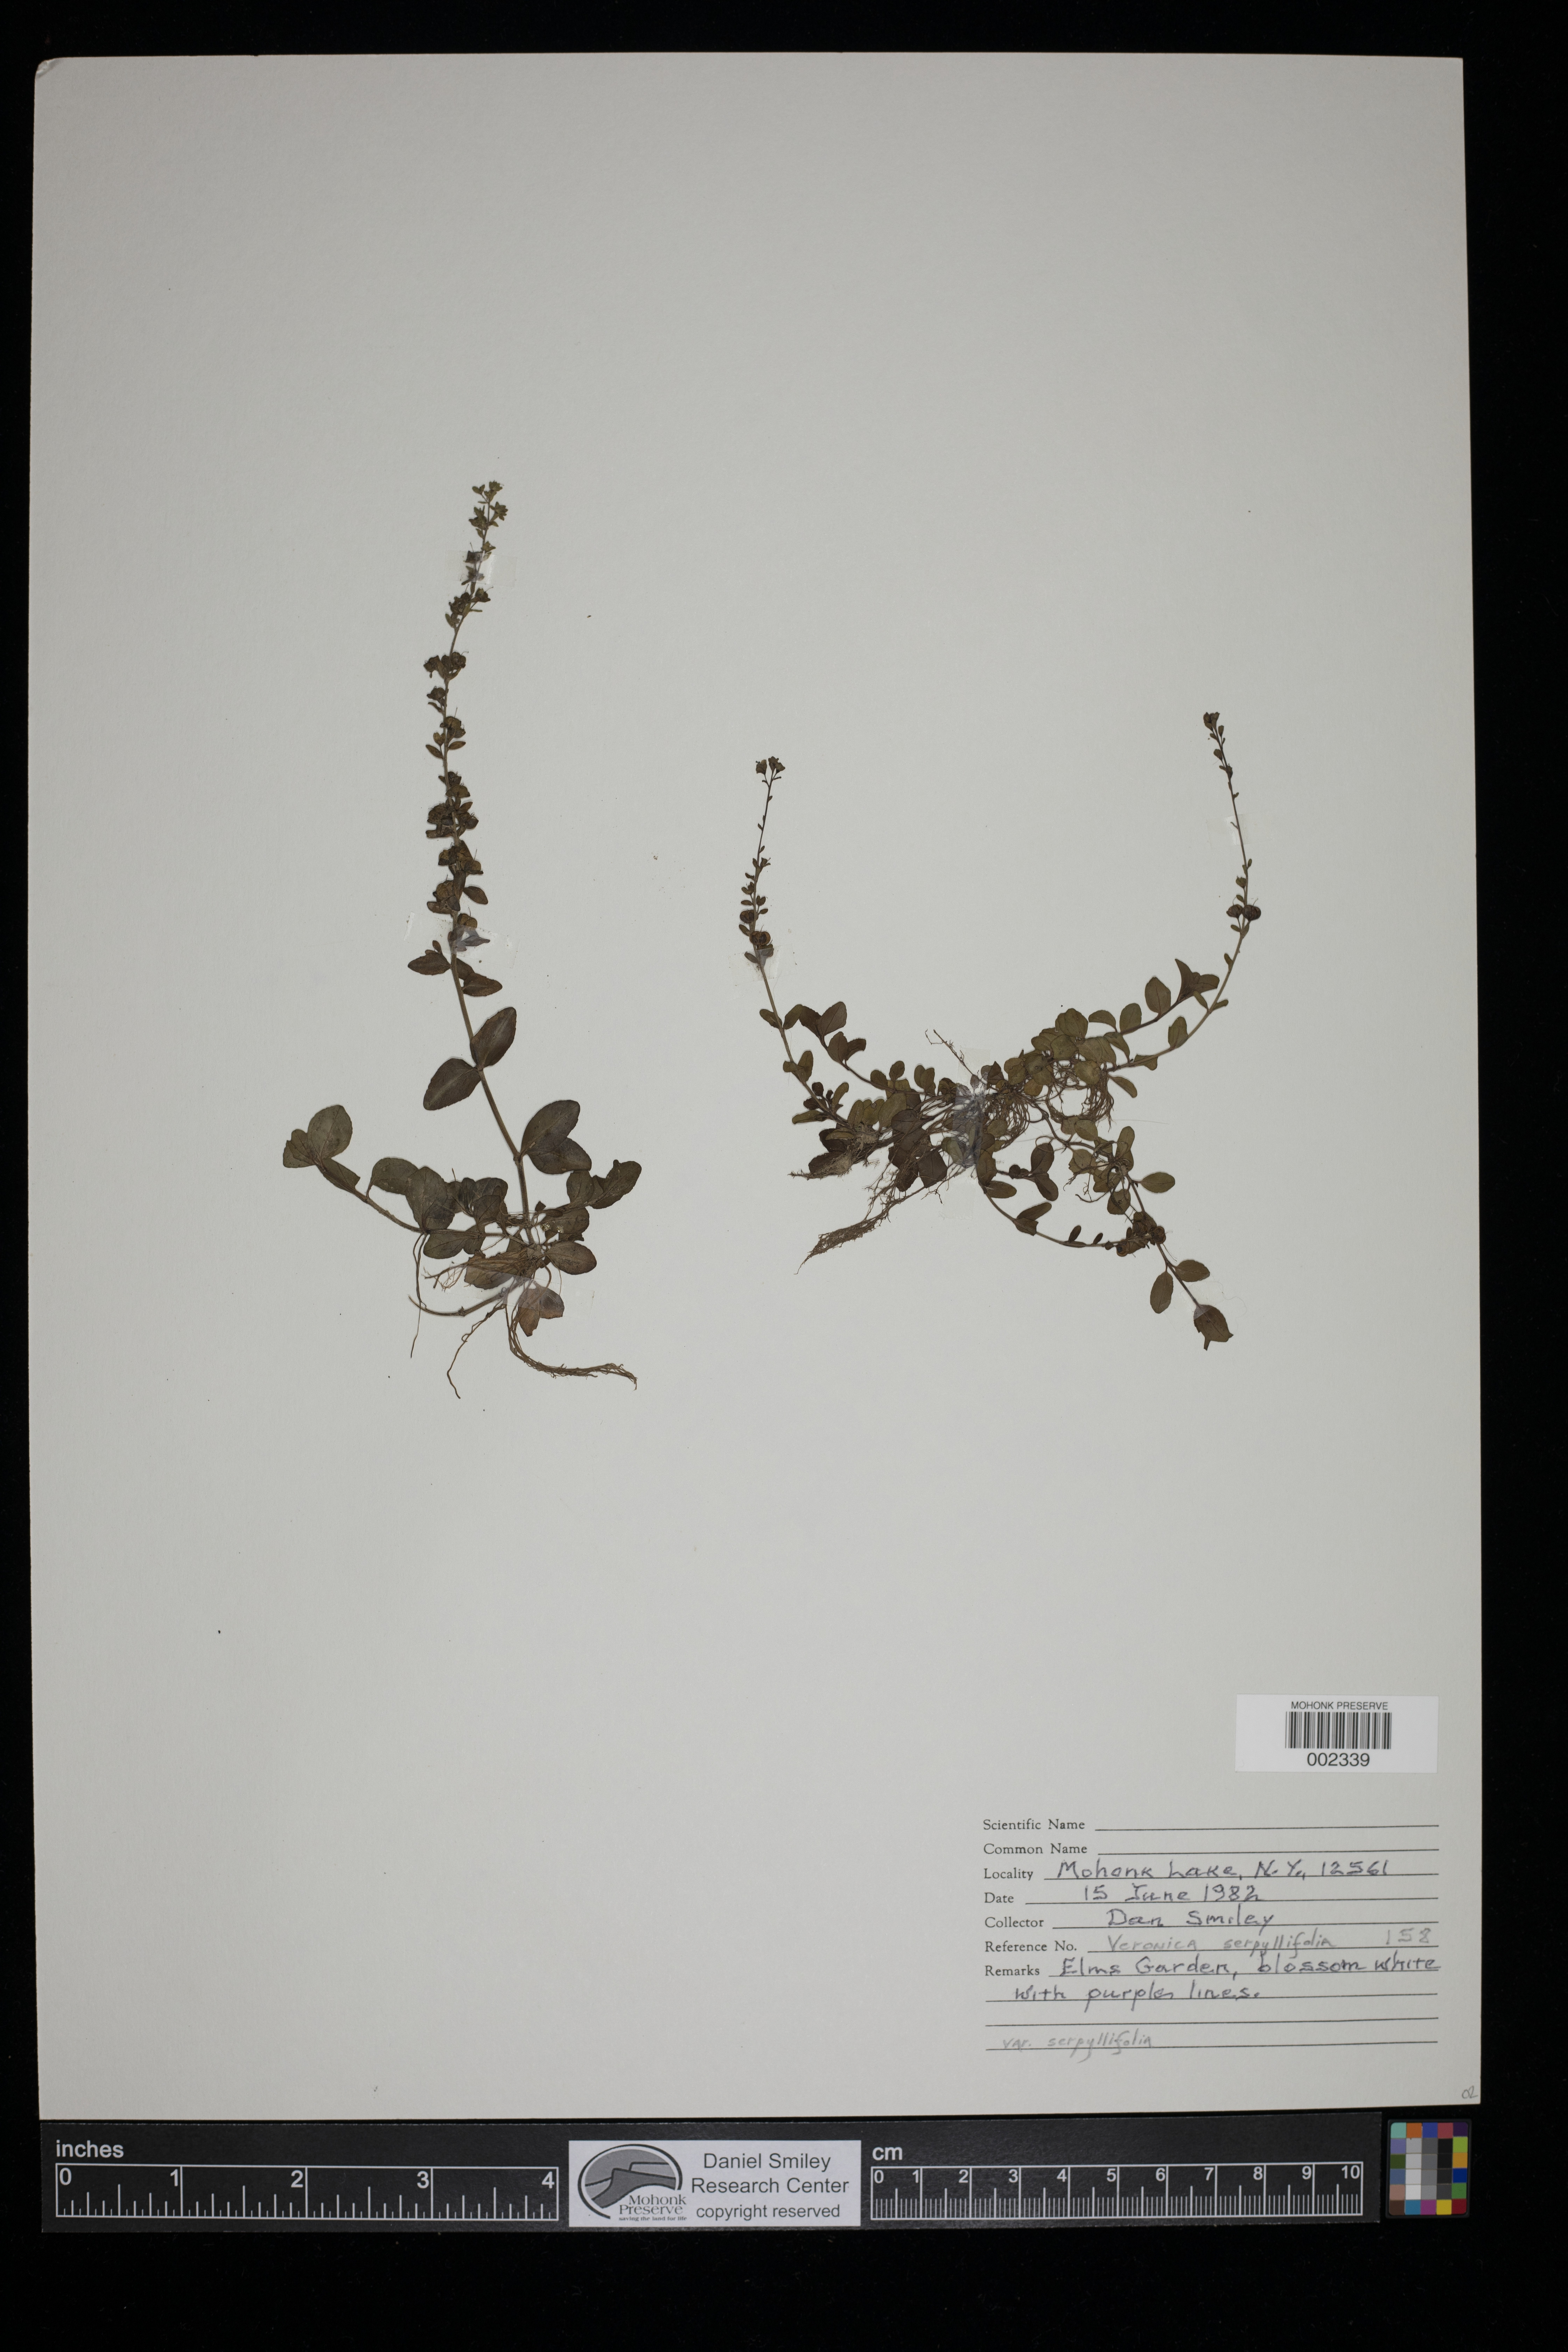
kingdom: Plantae
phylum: Tracheophyta
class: Magnoliopsida
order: Lamiales
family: Plantaginaceae
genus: Veronica
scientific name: Veronica serpyllifolia
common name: Thyme-leaved speedwell
